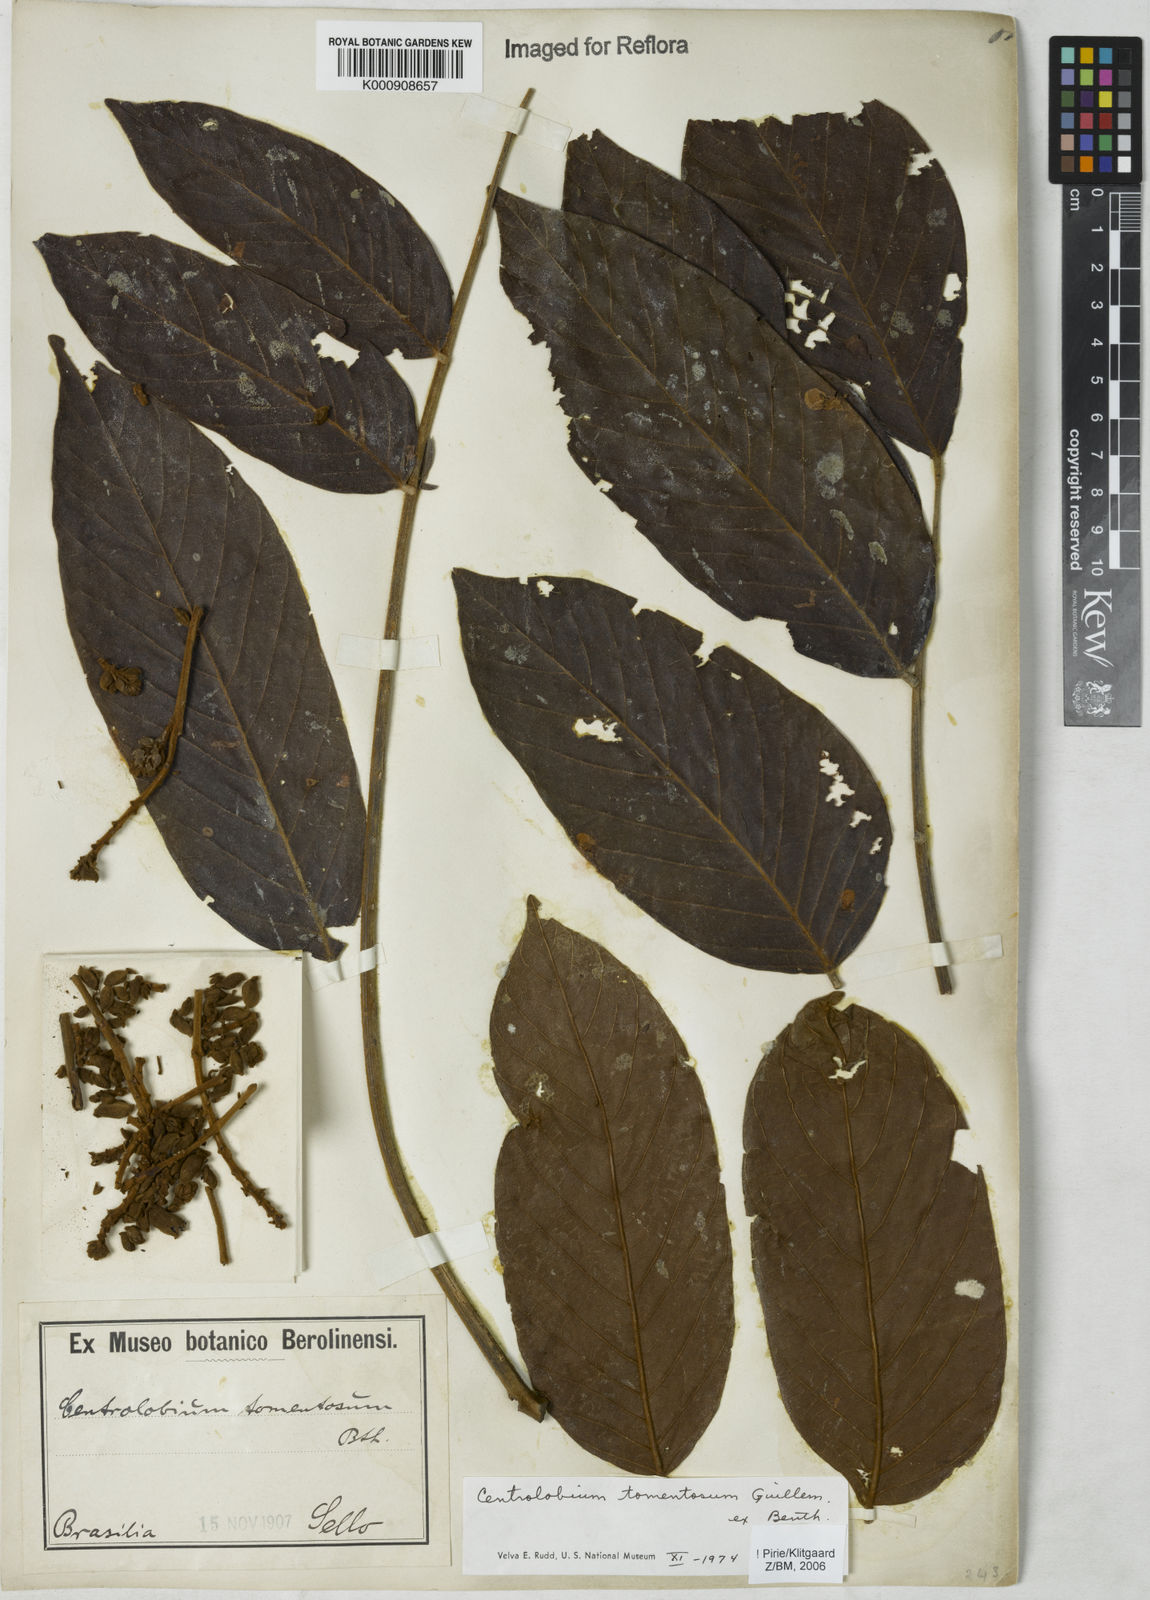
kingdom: Plantae
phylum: Tracheophyta
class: Magnoliopsida
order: Fabales
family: Fabaceae
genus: Centrolobium
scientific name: Centrolobium tomentosum
